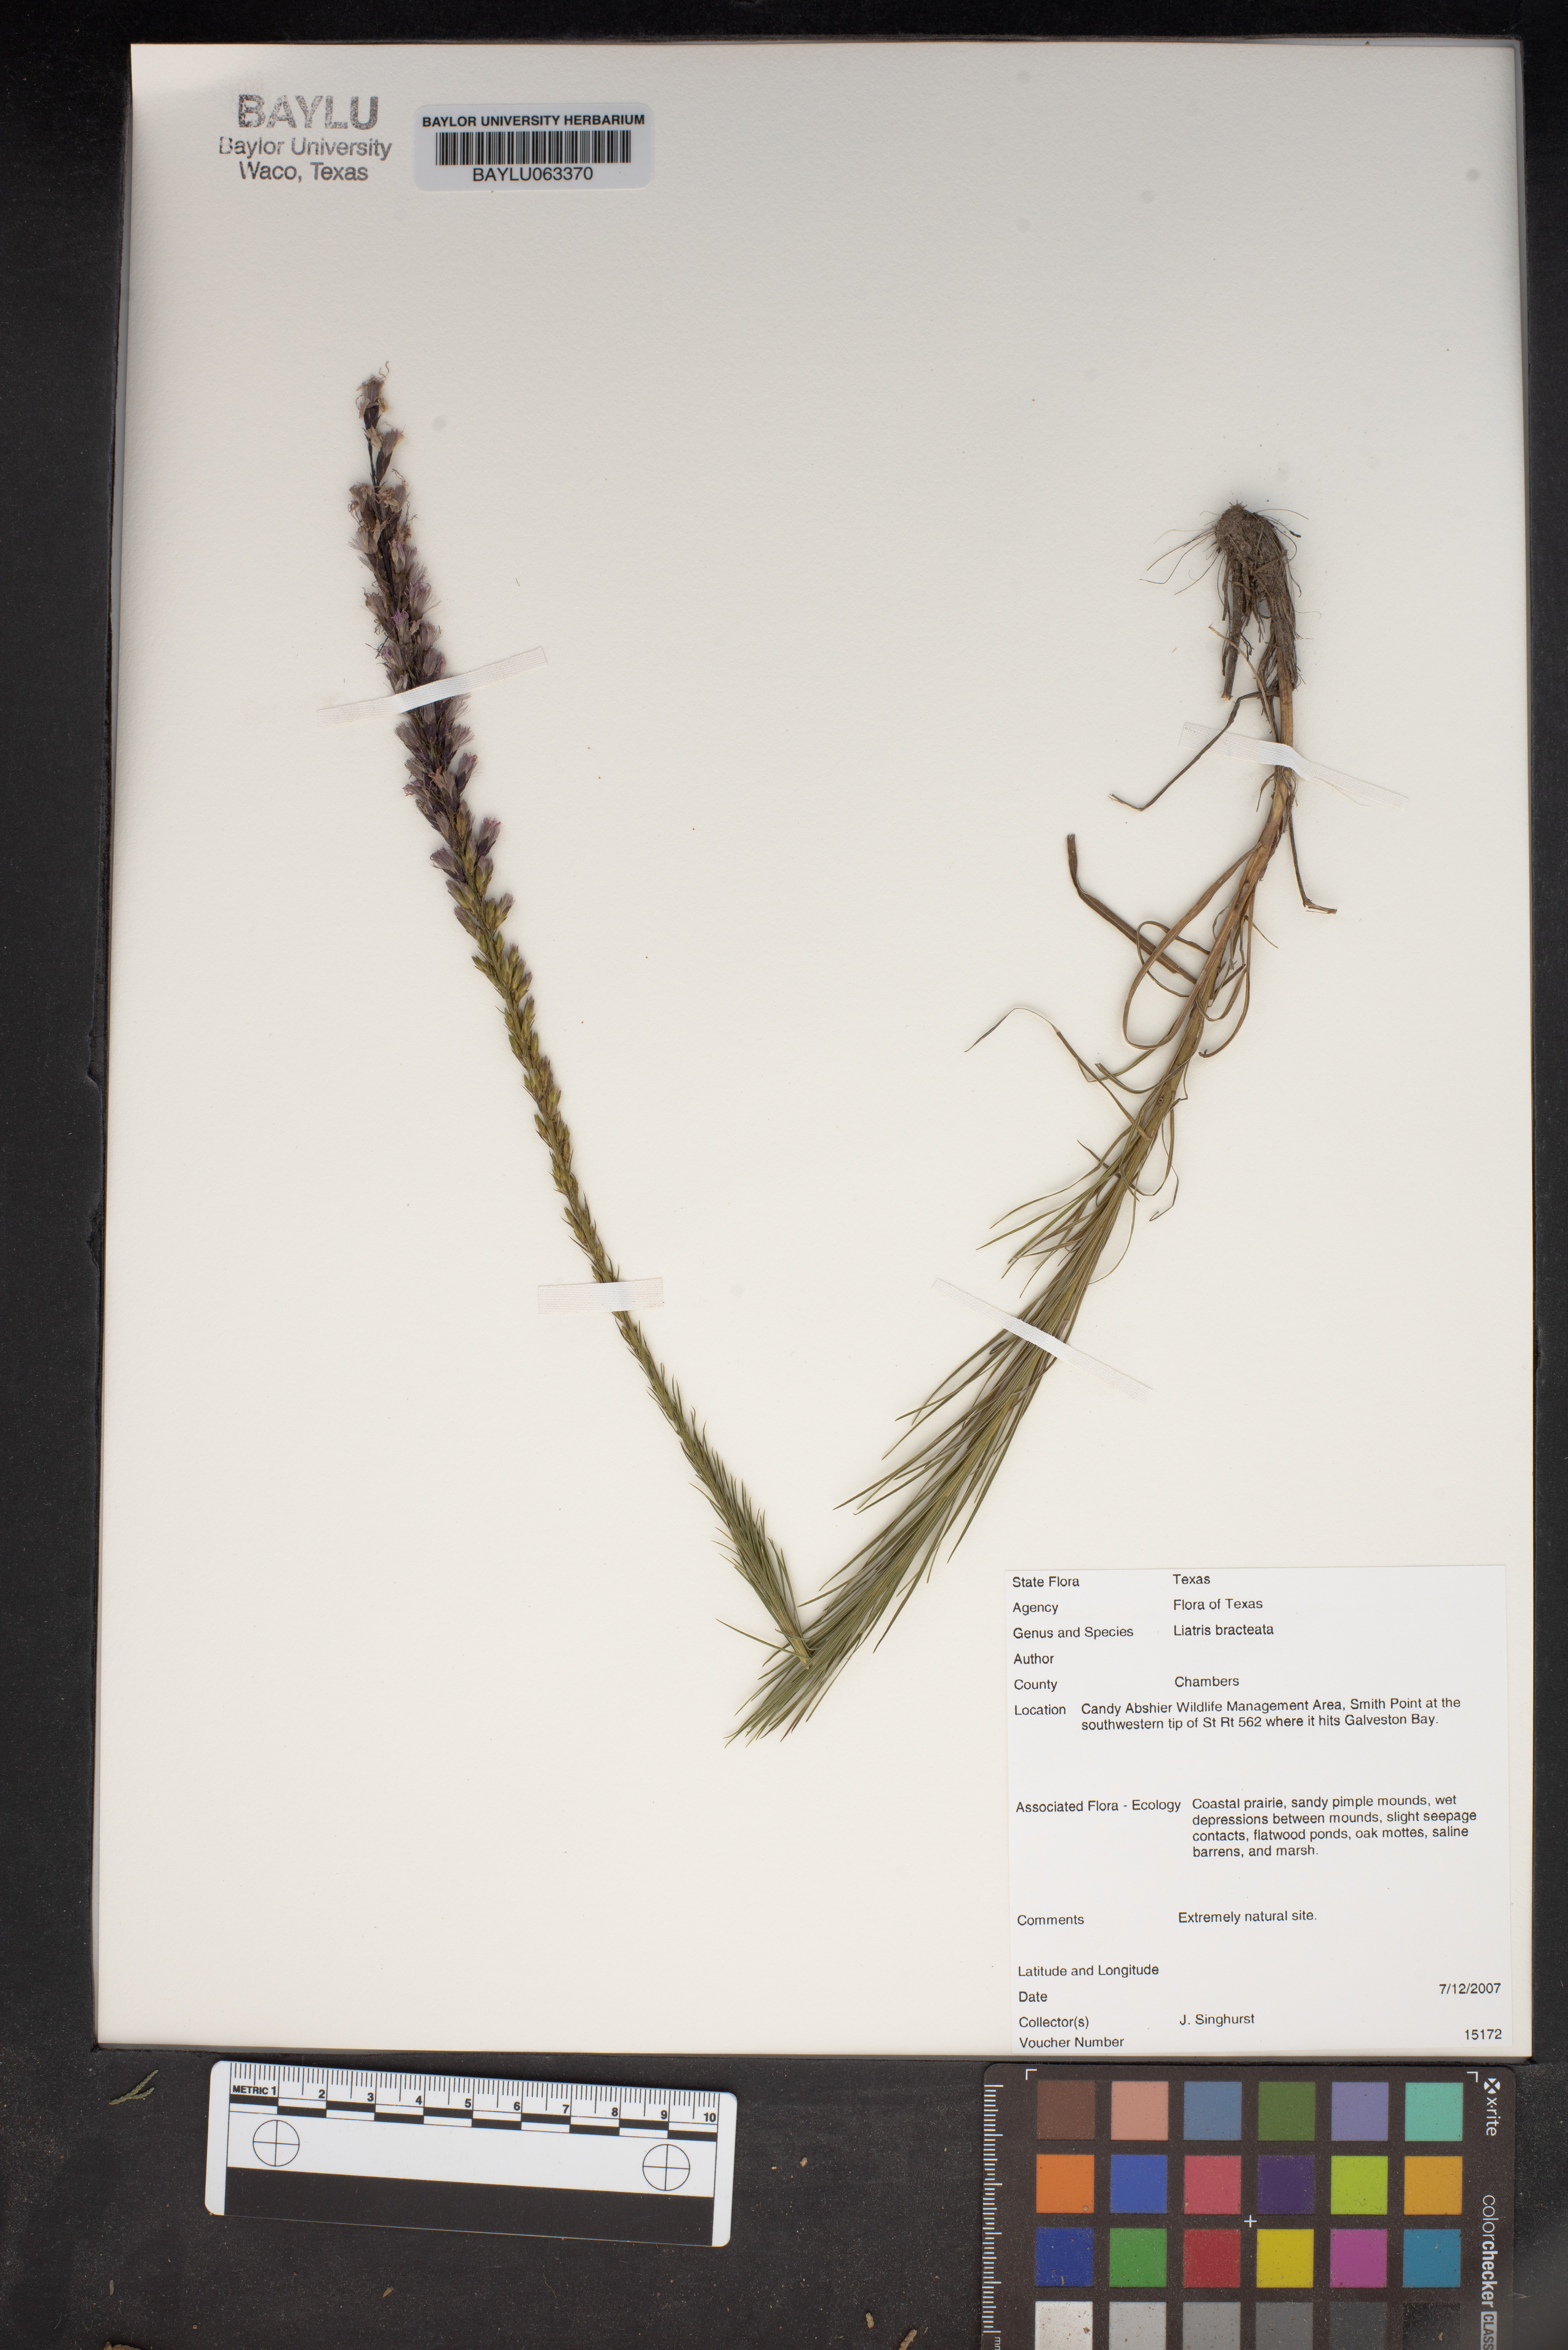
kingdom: Plantae
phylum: Tracheophyta
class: Magnoliopsida
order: Asterales
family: Asteraceae
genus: Liatris
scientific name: Liatris bracteata
